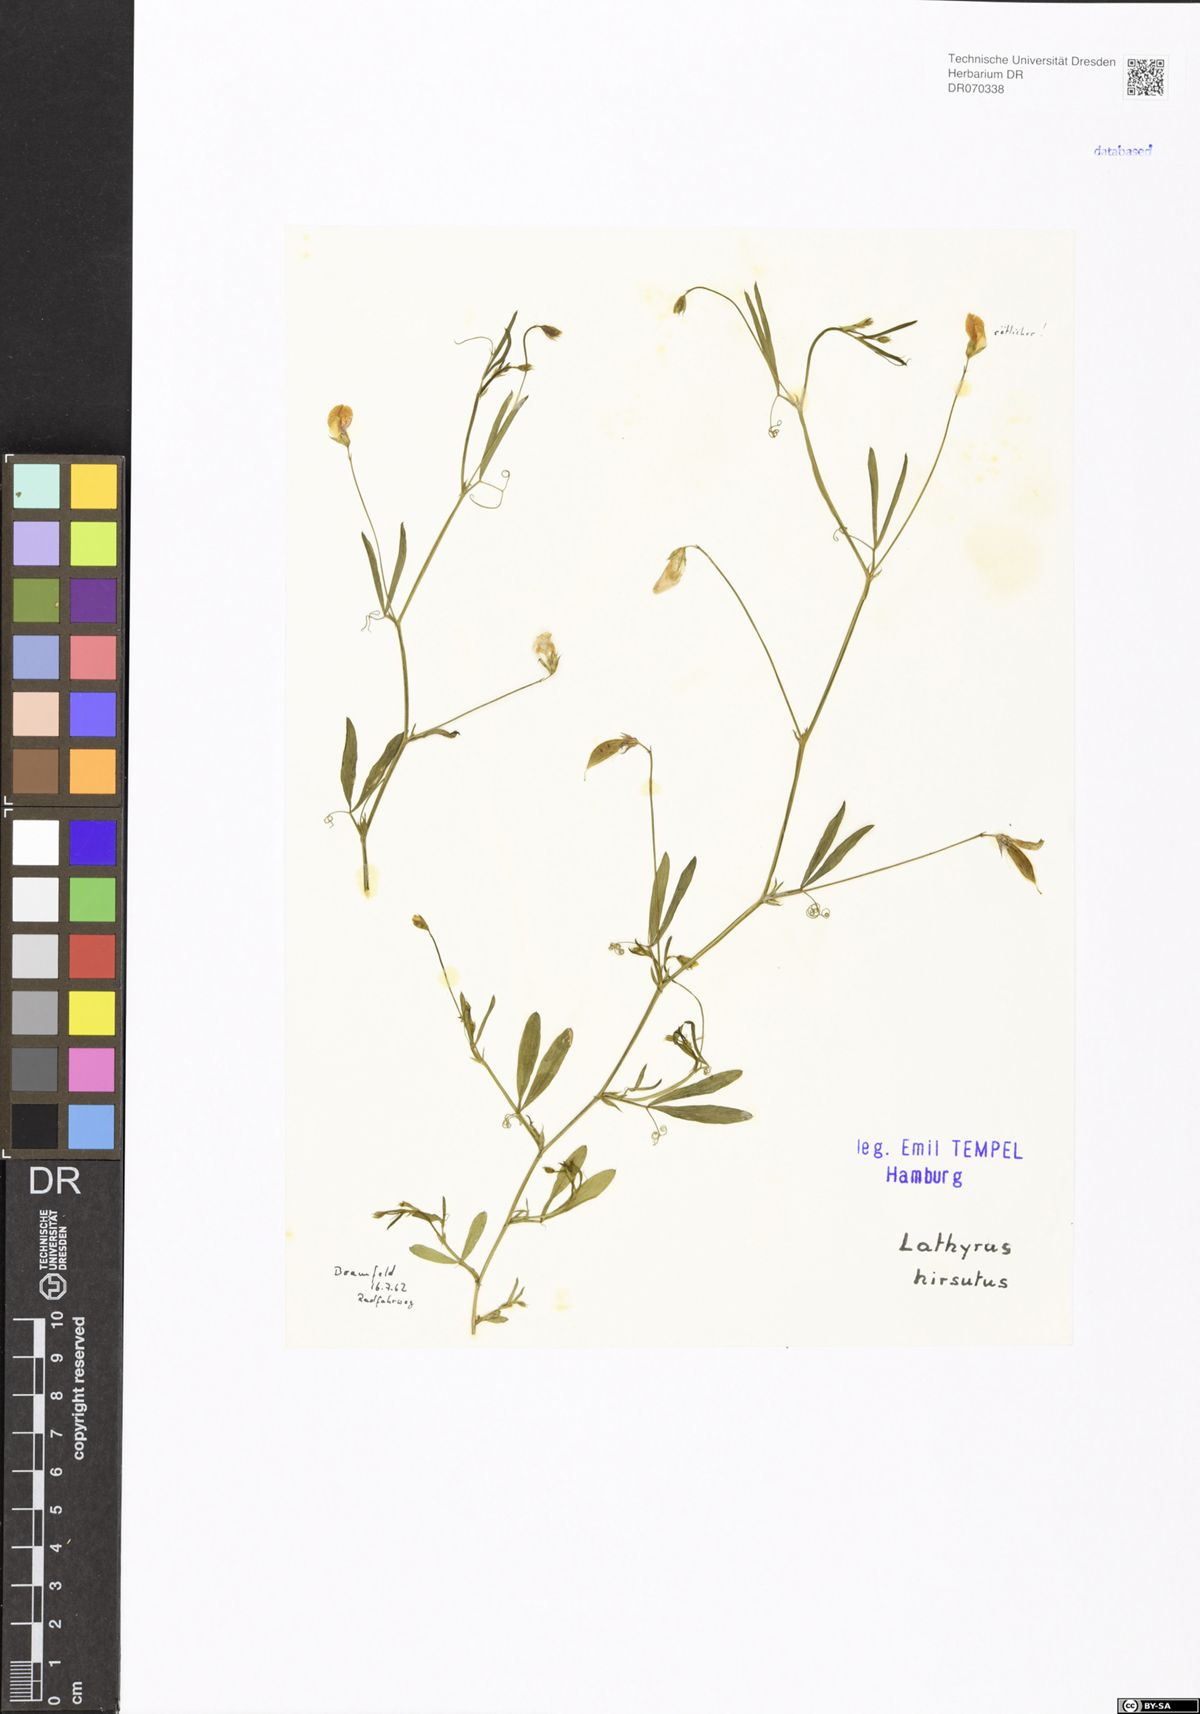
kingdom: Plantae
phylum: Tracheophyta
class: Magnoliopsida
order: Fabales
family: Fabaceae
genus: Lathyrus
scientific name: Lathyrus hirsutus
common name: Hairy vetchling
